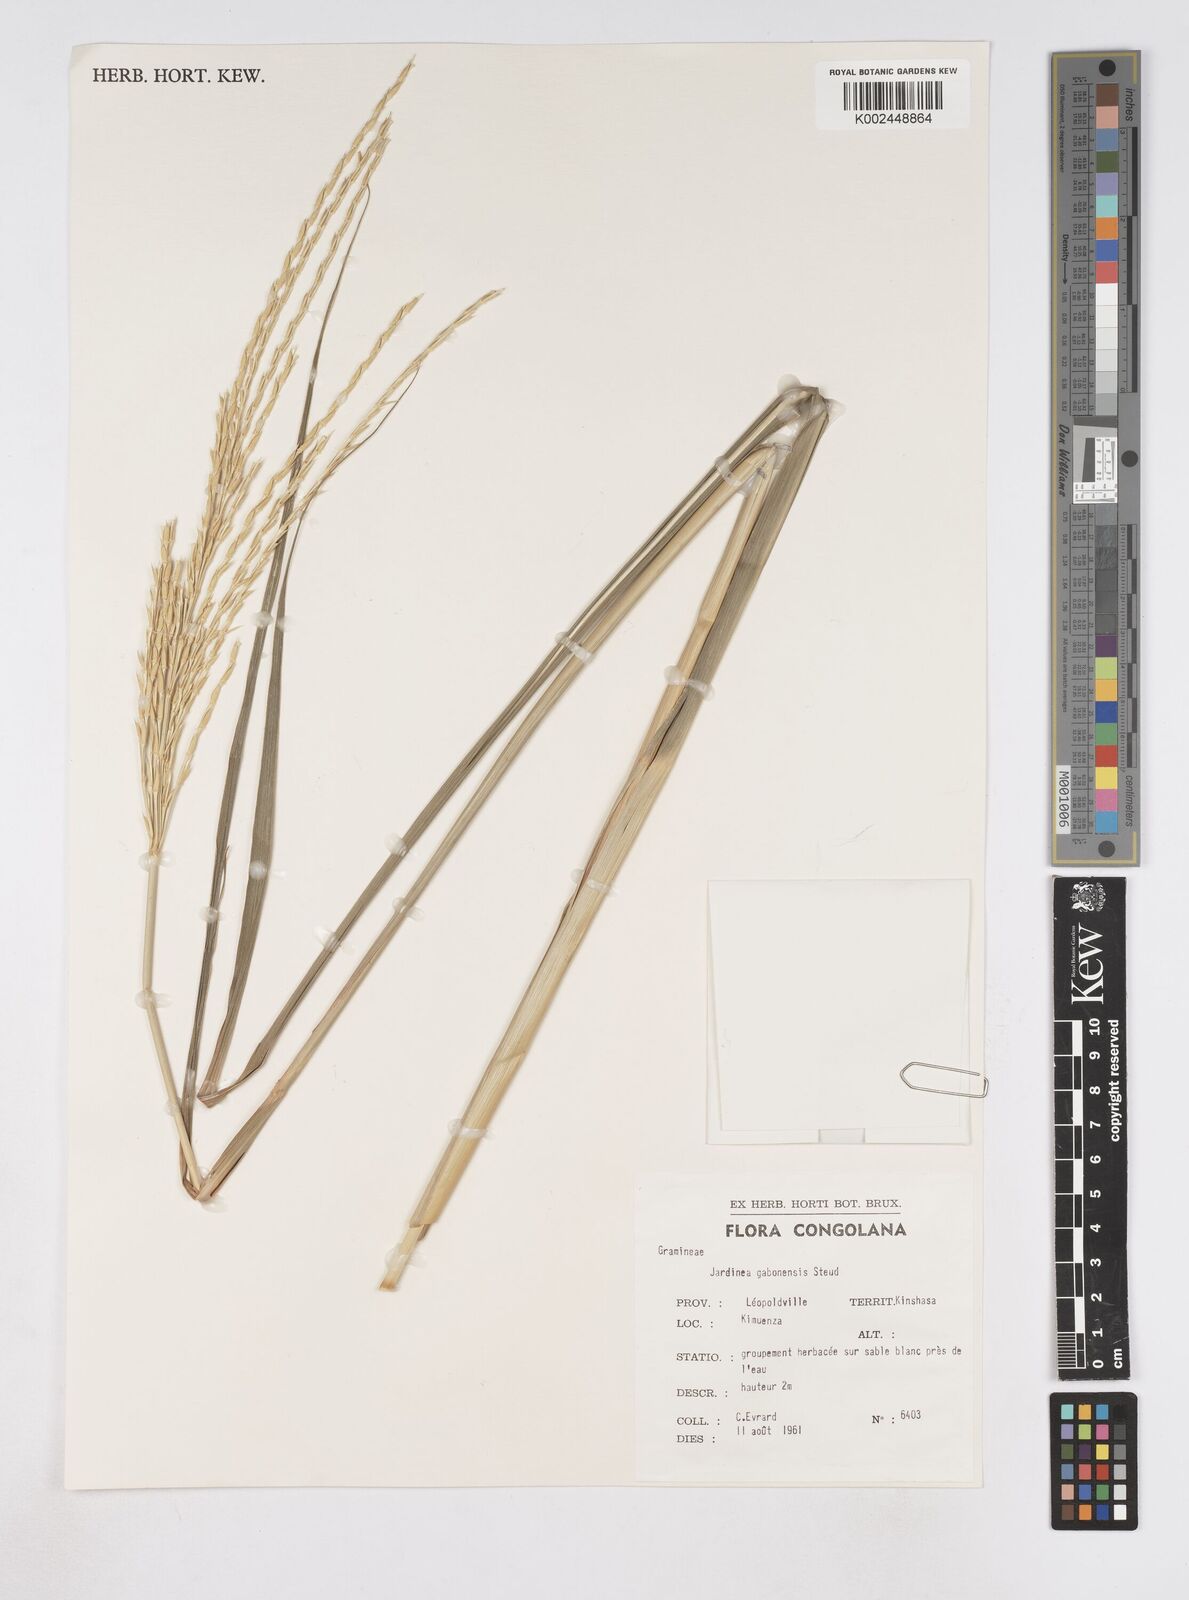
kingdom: Plantae
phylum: Tracheophyta
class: Liliopsida
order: Poales
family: Poaceae
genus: Phacelurus
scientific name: Phacelurus gabonensis
